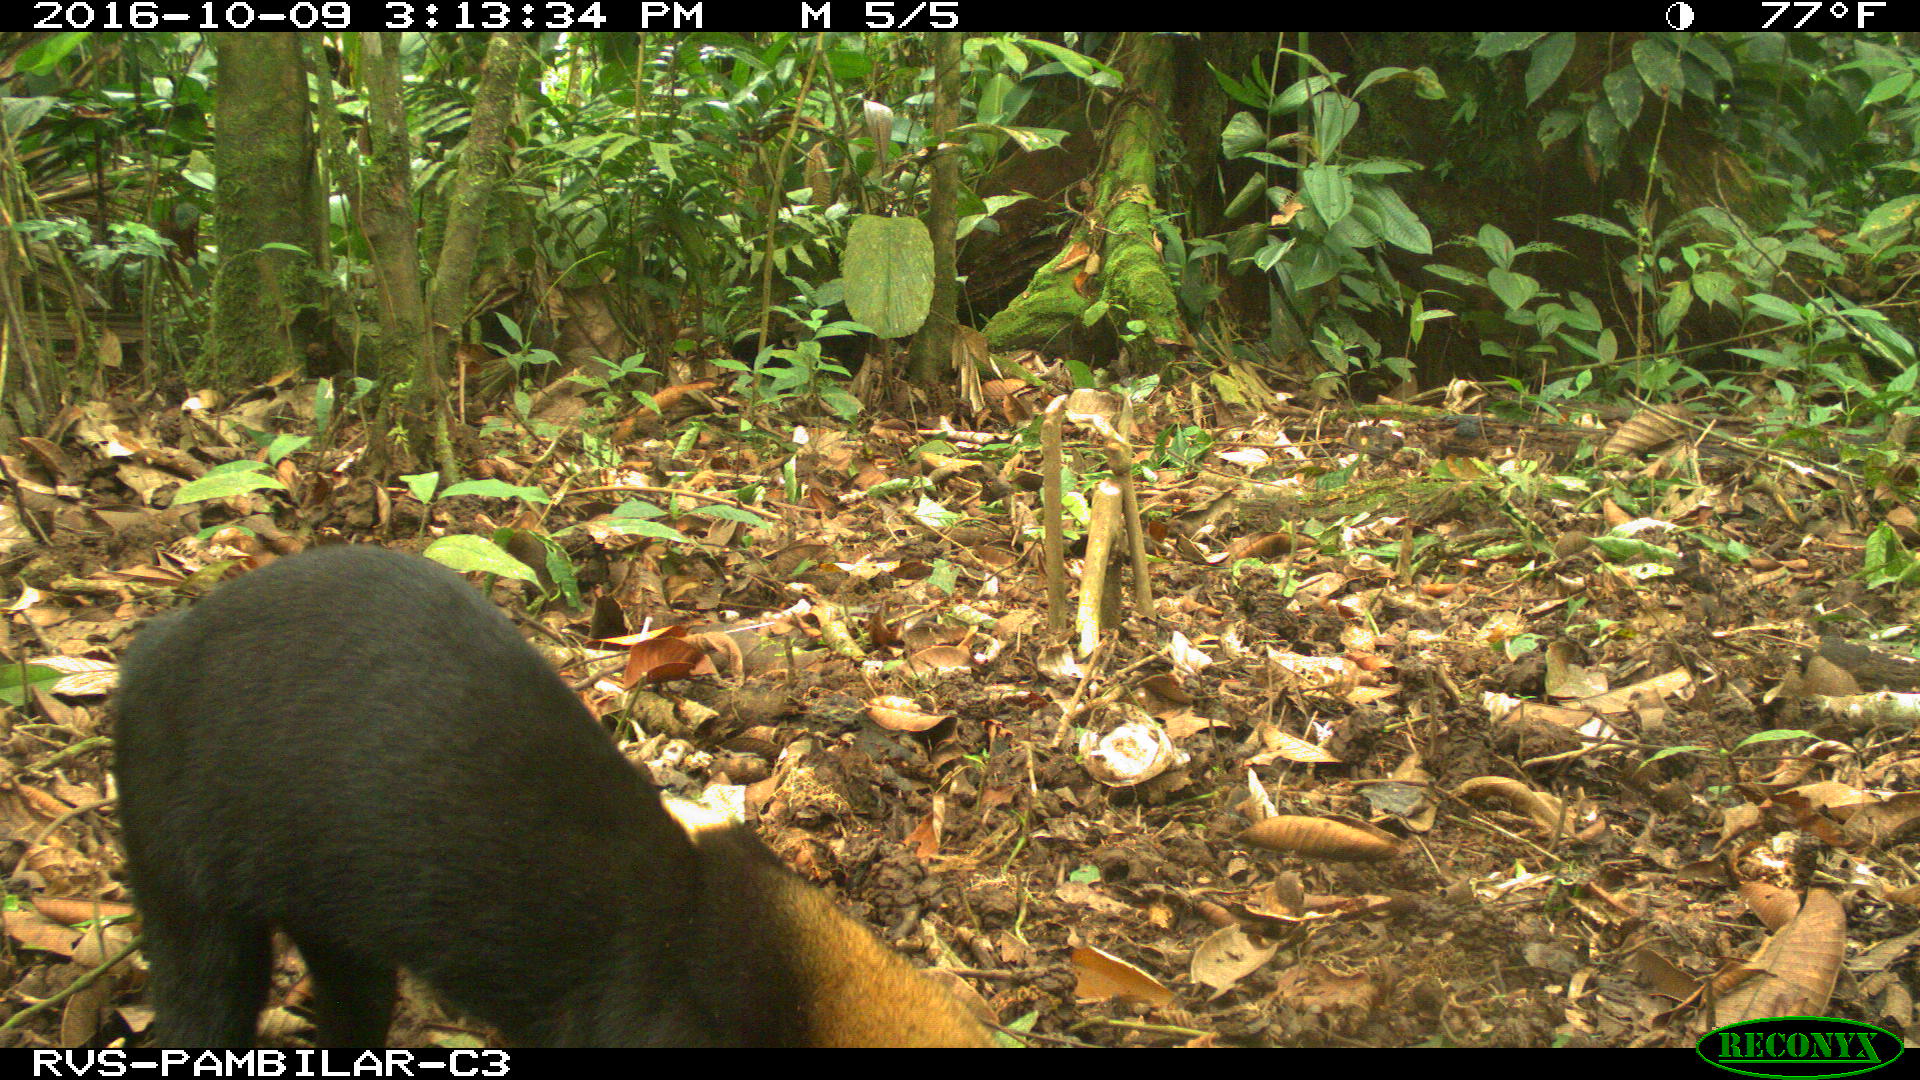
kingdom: Animalia
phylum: Chordata
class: Mammalia
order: Carnivora
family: Mustelidae
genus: Eira
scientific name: Eira barbara
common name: Tayra
